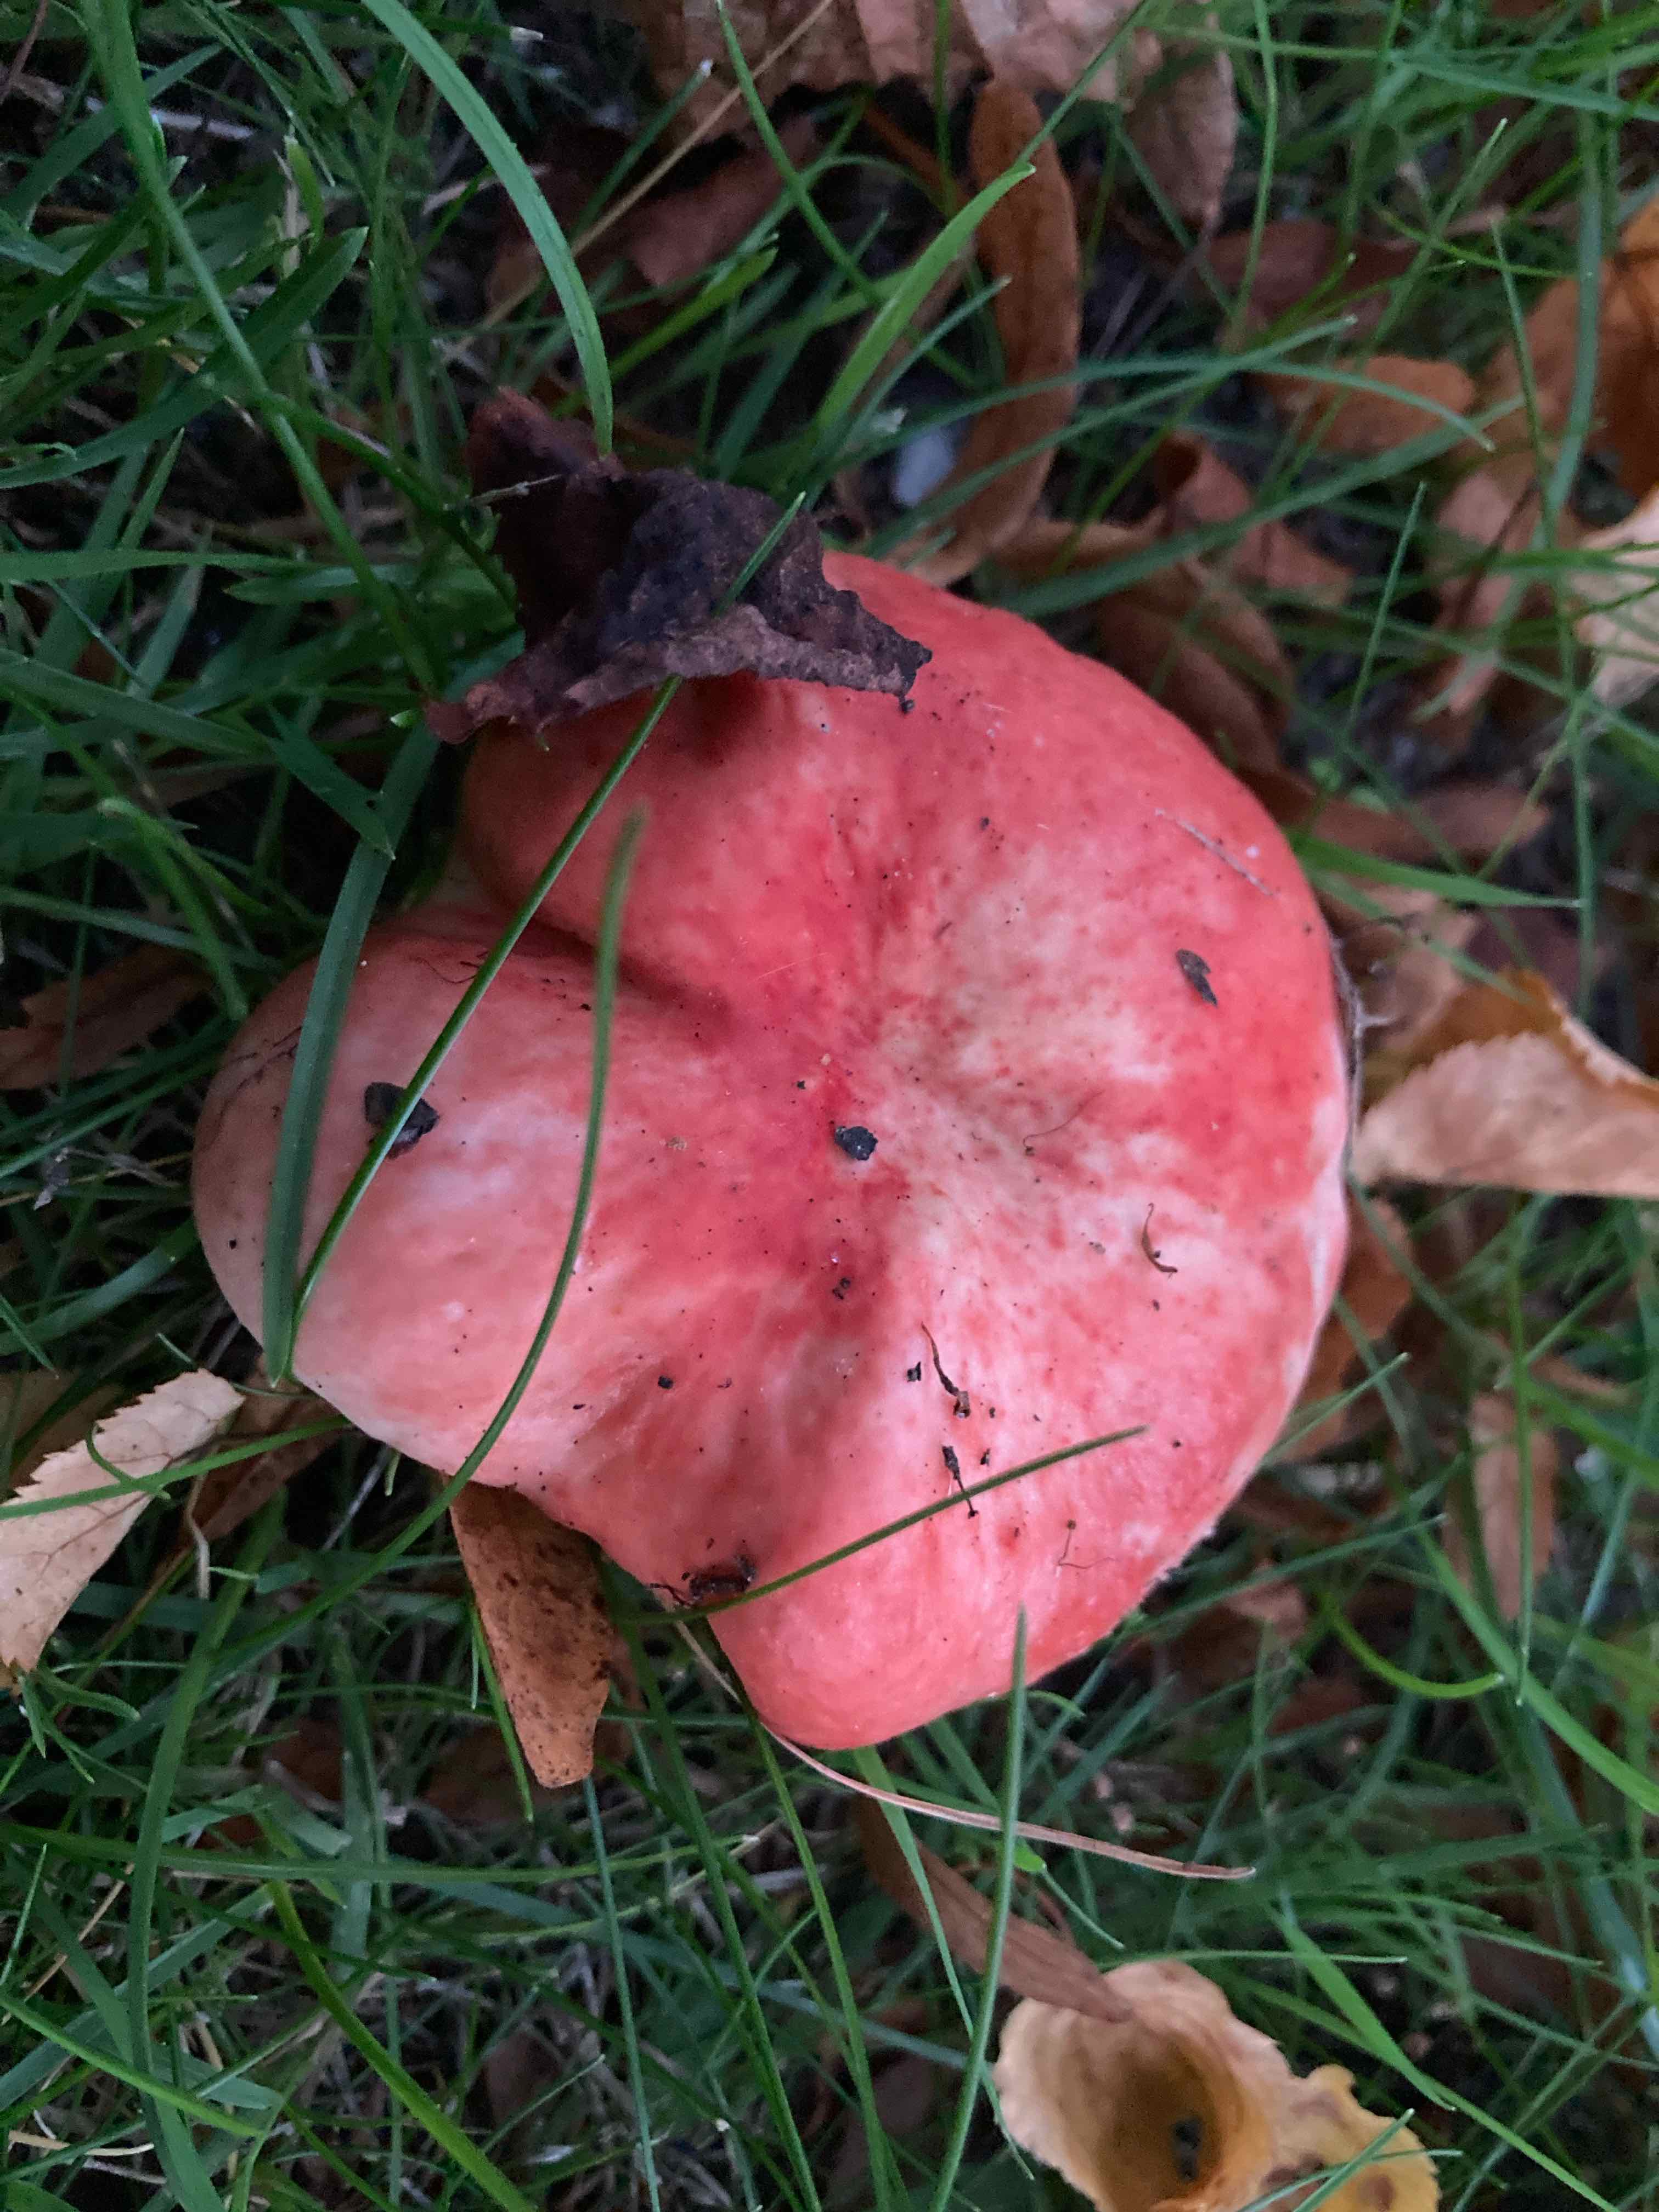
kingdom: Fungi
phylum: Basidiomycota
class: Agaricomycetes
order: Russulales
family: Russulaceae
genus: Russula
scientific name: Russula
